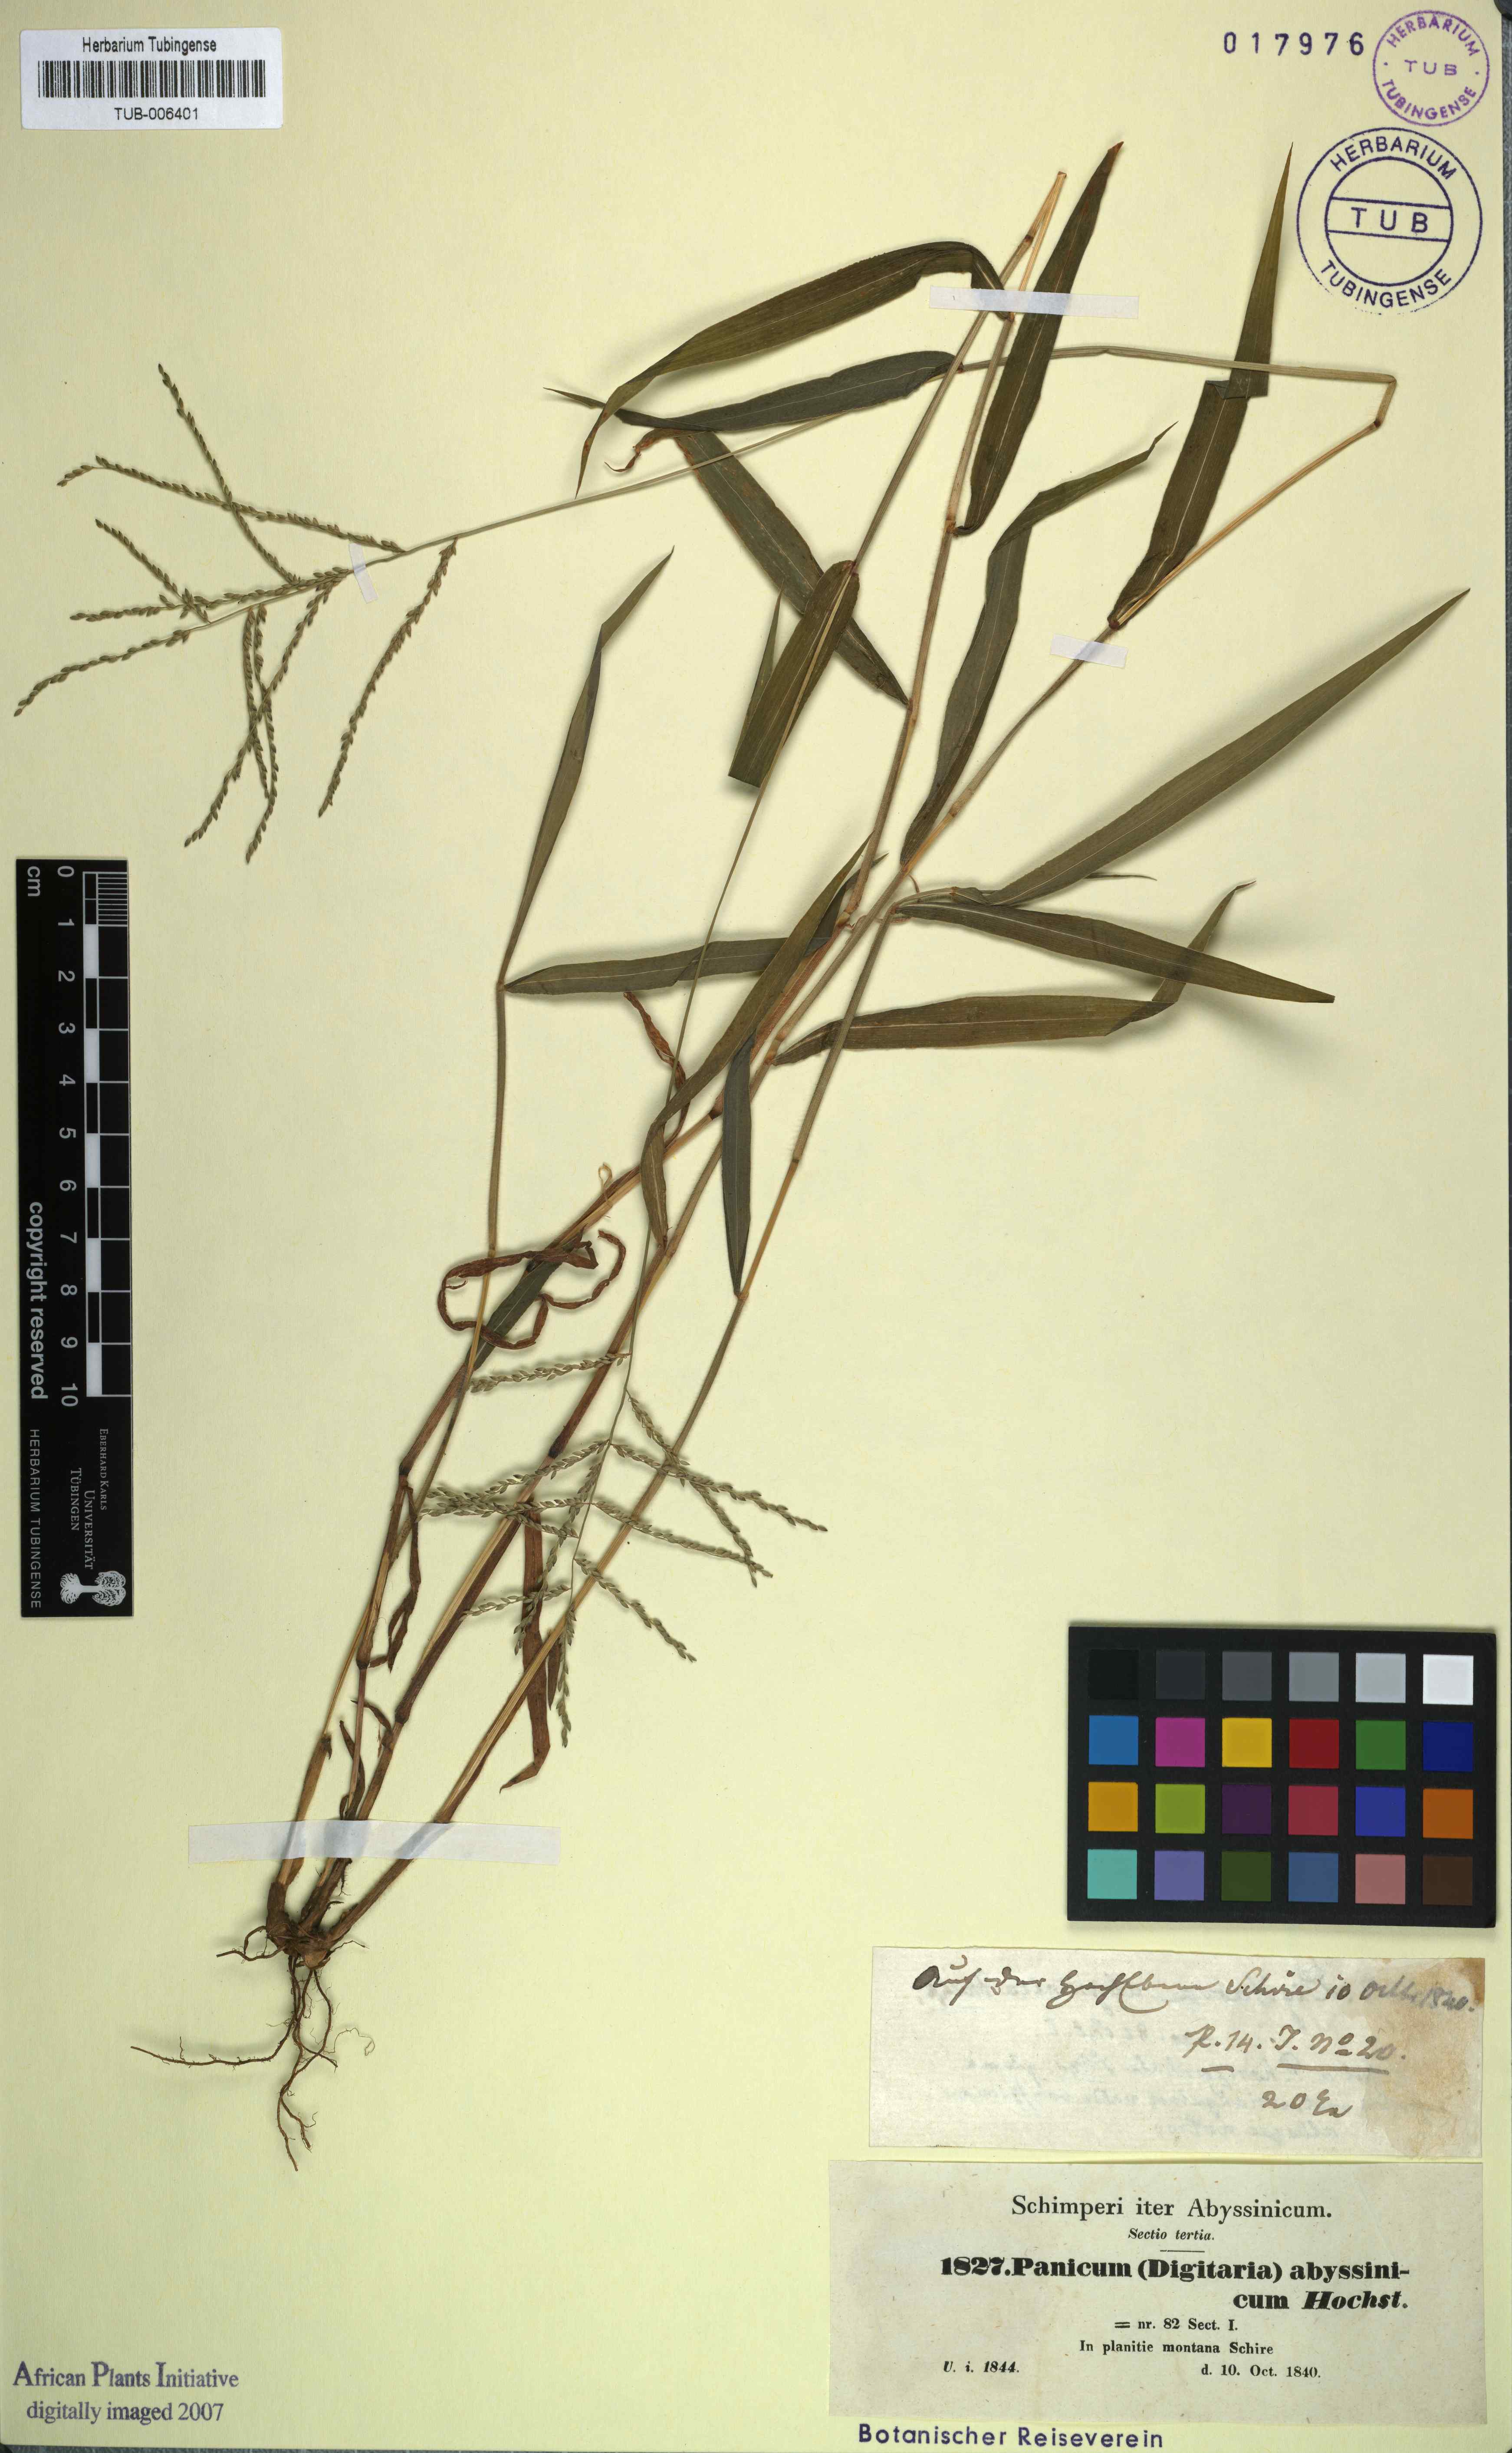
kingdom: Plantae
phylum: Tracheophyta
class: Liliopsida
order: Poales
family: Poaceae
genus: Panicum
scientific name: Panicum abyssinicum
